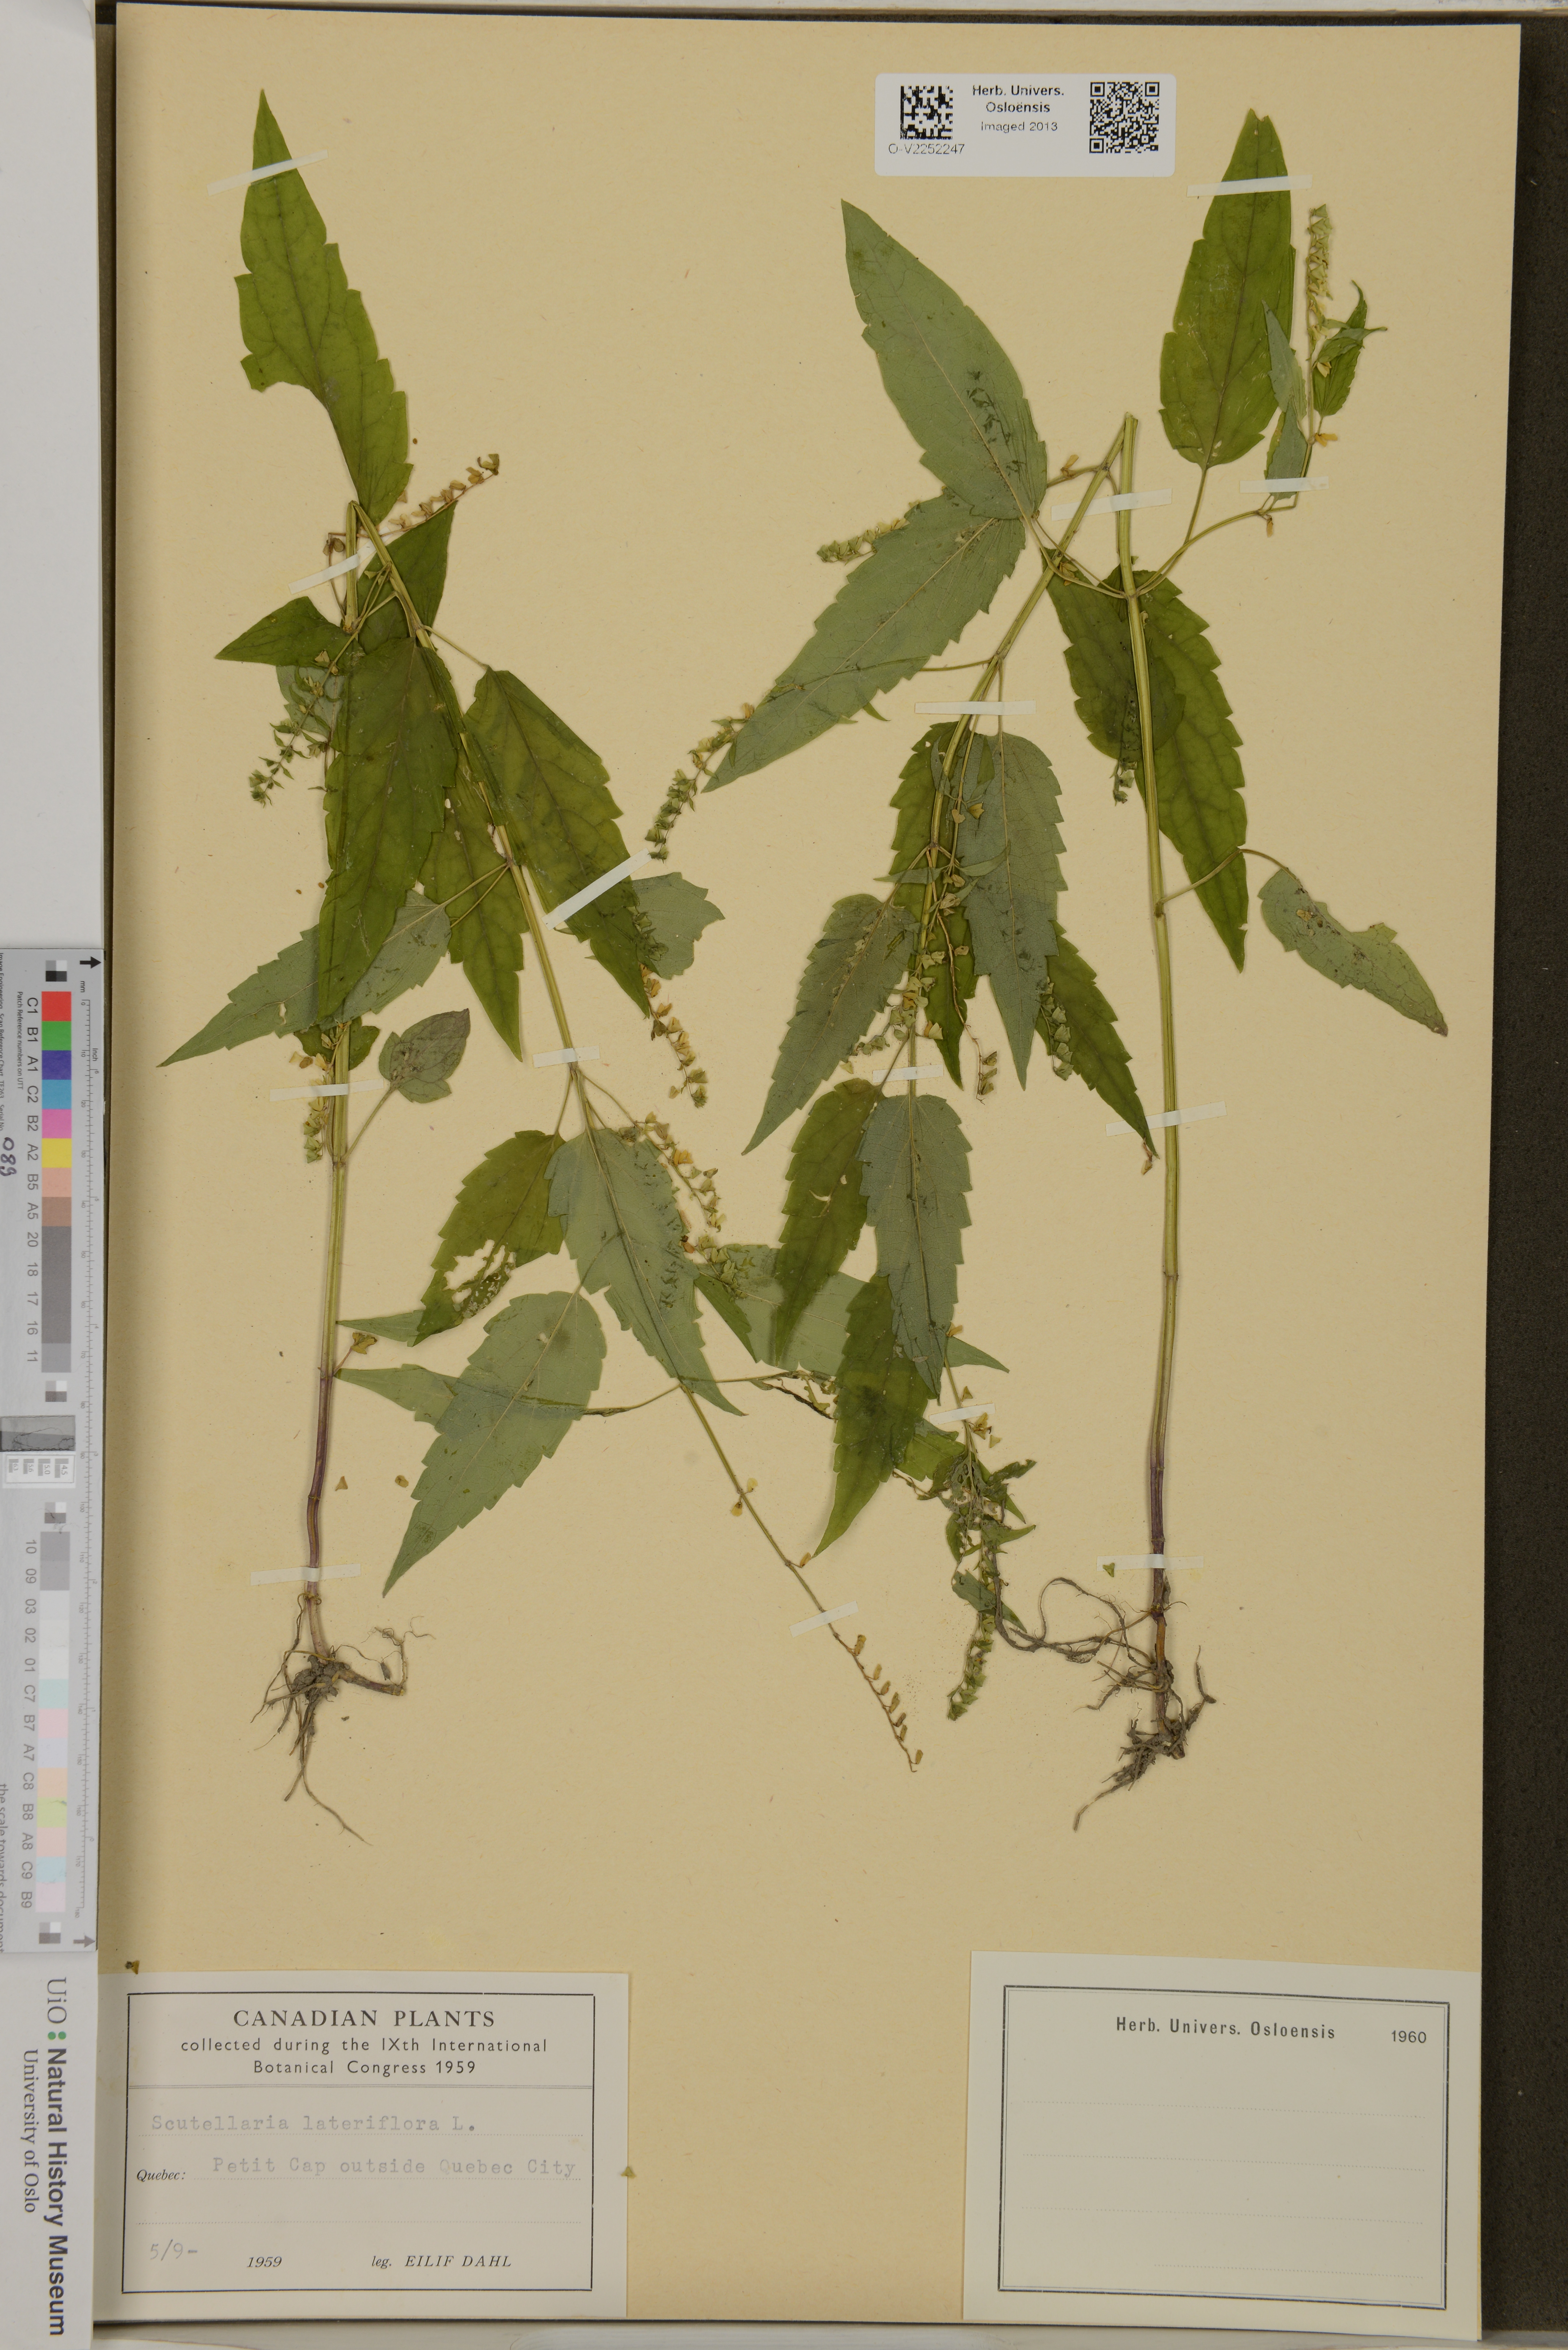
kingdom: Plantae
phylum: Tracheophyta
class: Magnoliopsida
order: Lamiales
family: Lamiaceae
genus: Scutellaria
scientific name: Scutellaria lateriflora
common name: Blue skullcap
